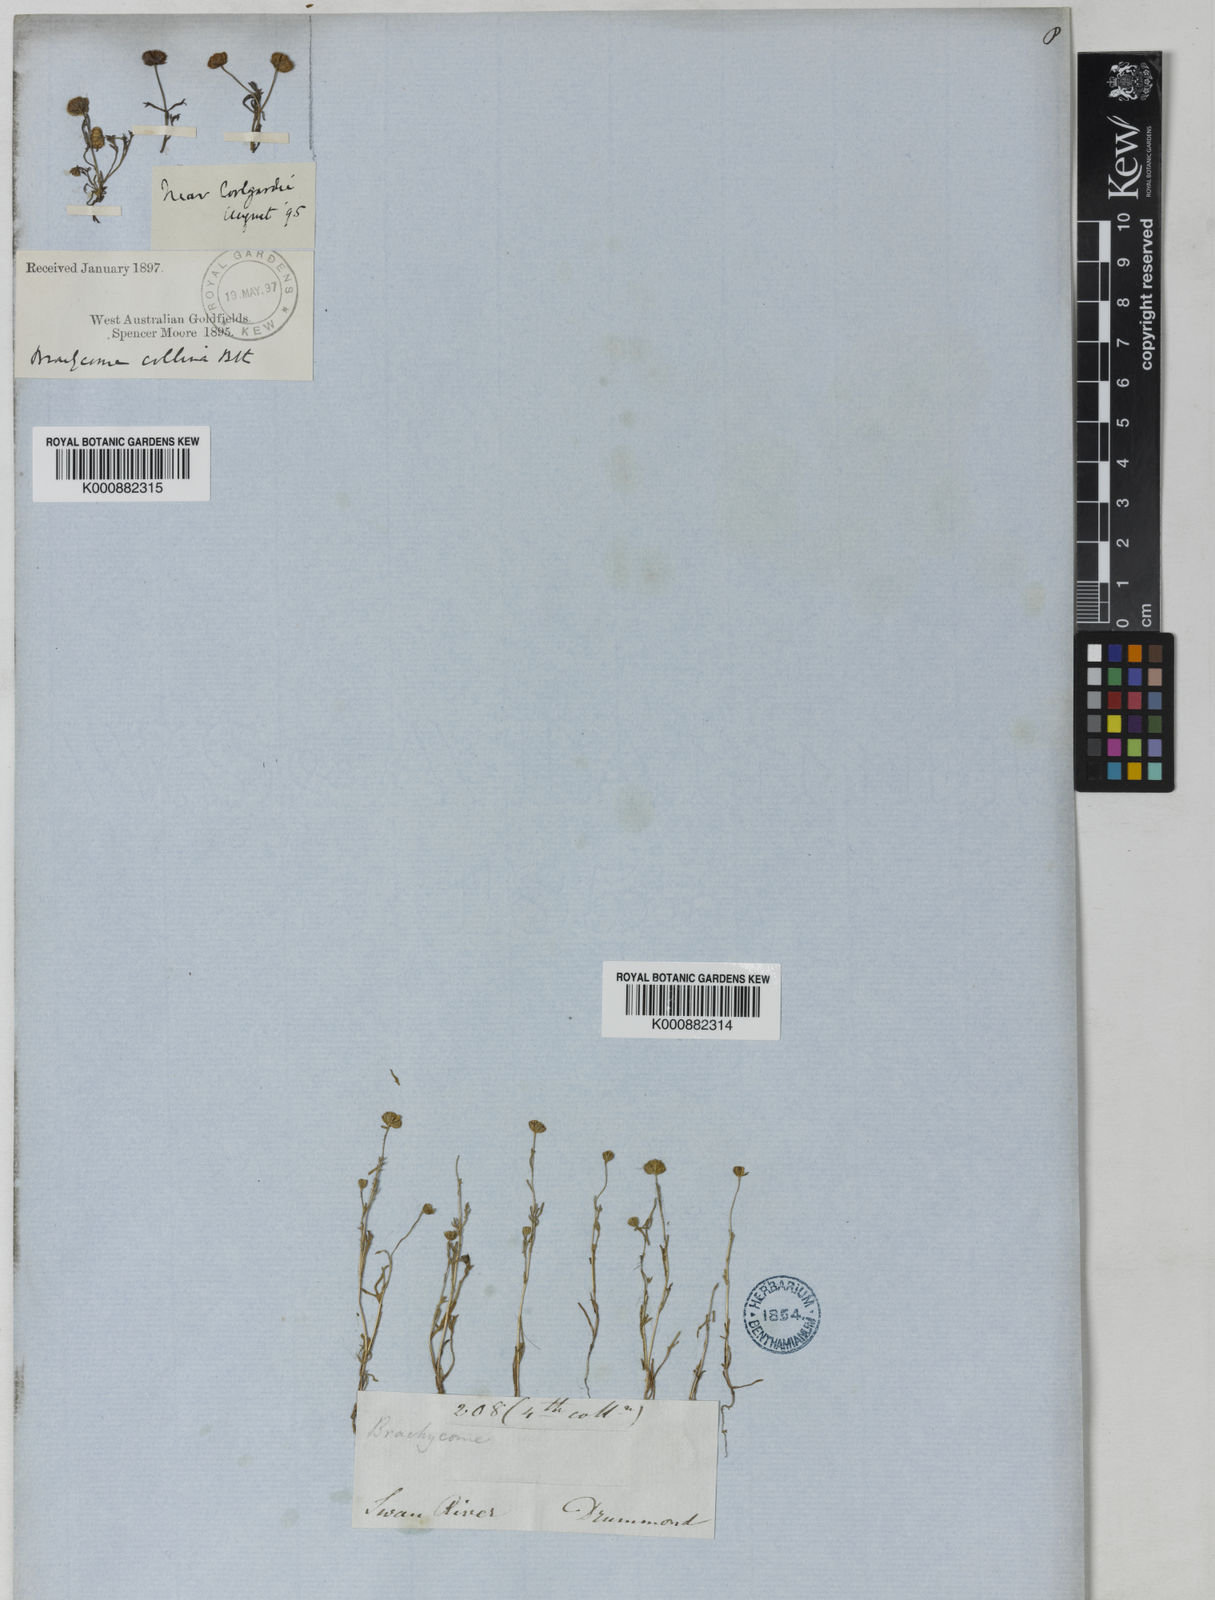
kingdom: Plantae
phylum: Tracheophyta
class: Magnoliopsida
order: Asterales
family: Asteraceae
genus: Brachyscome
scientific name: Brachyscome perpusilla
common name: Tiny daisy
